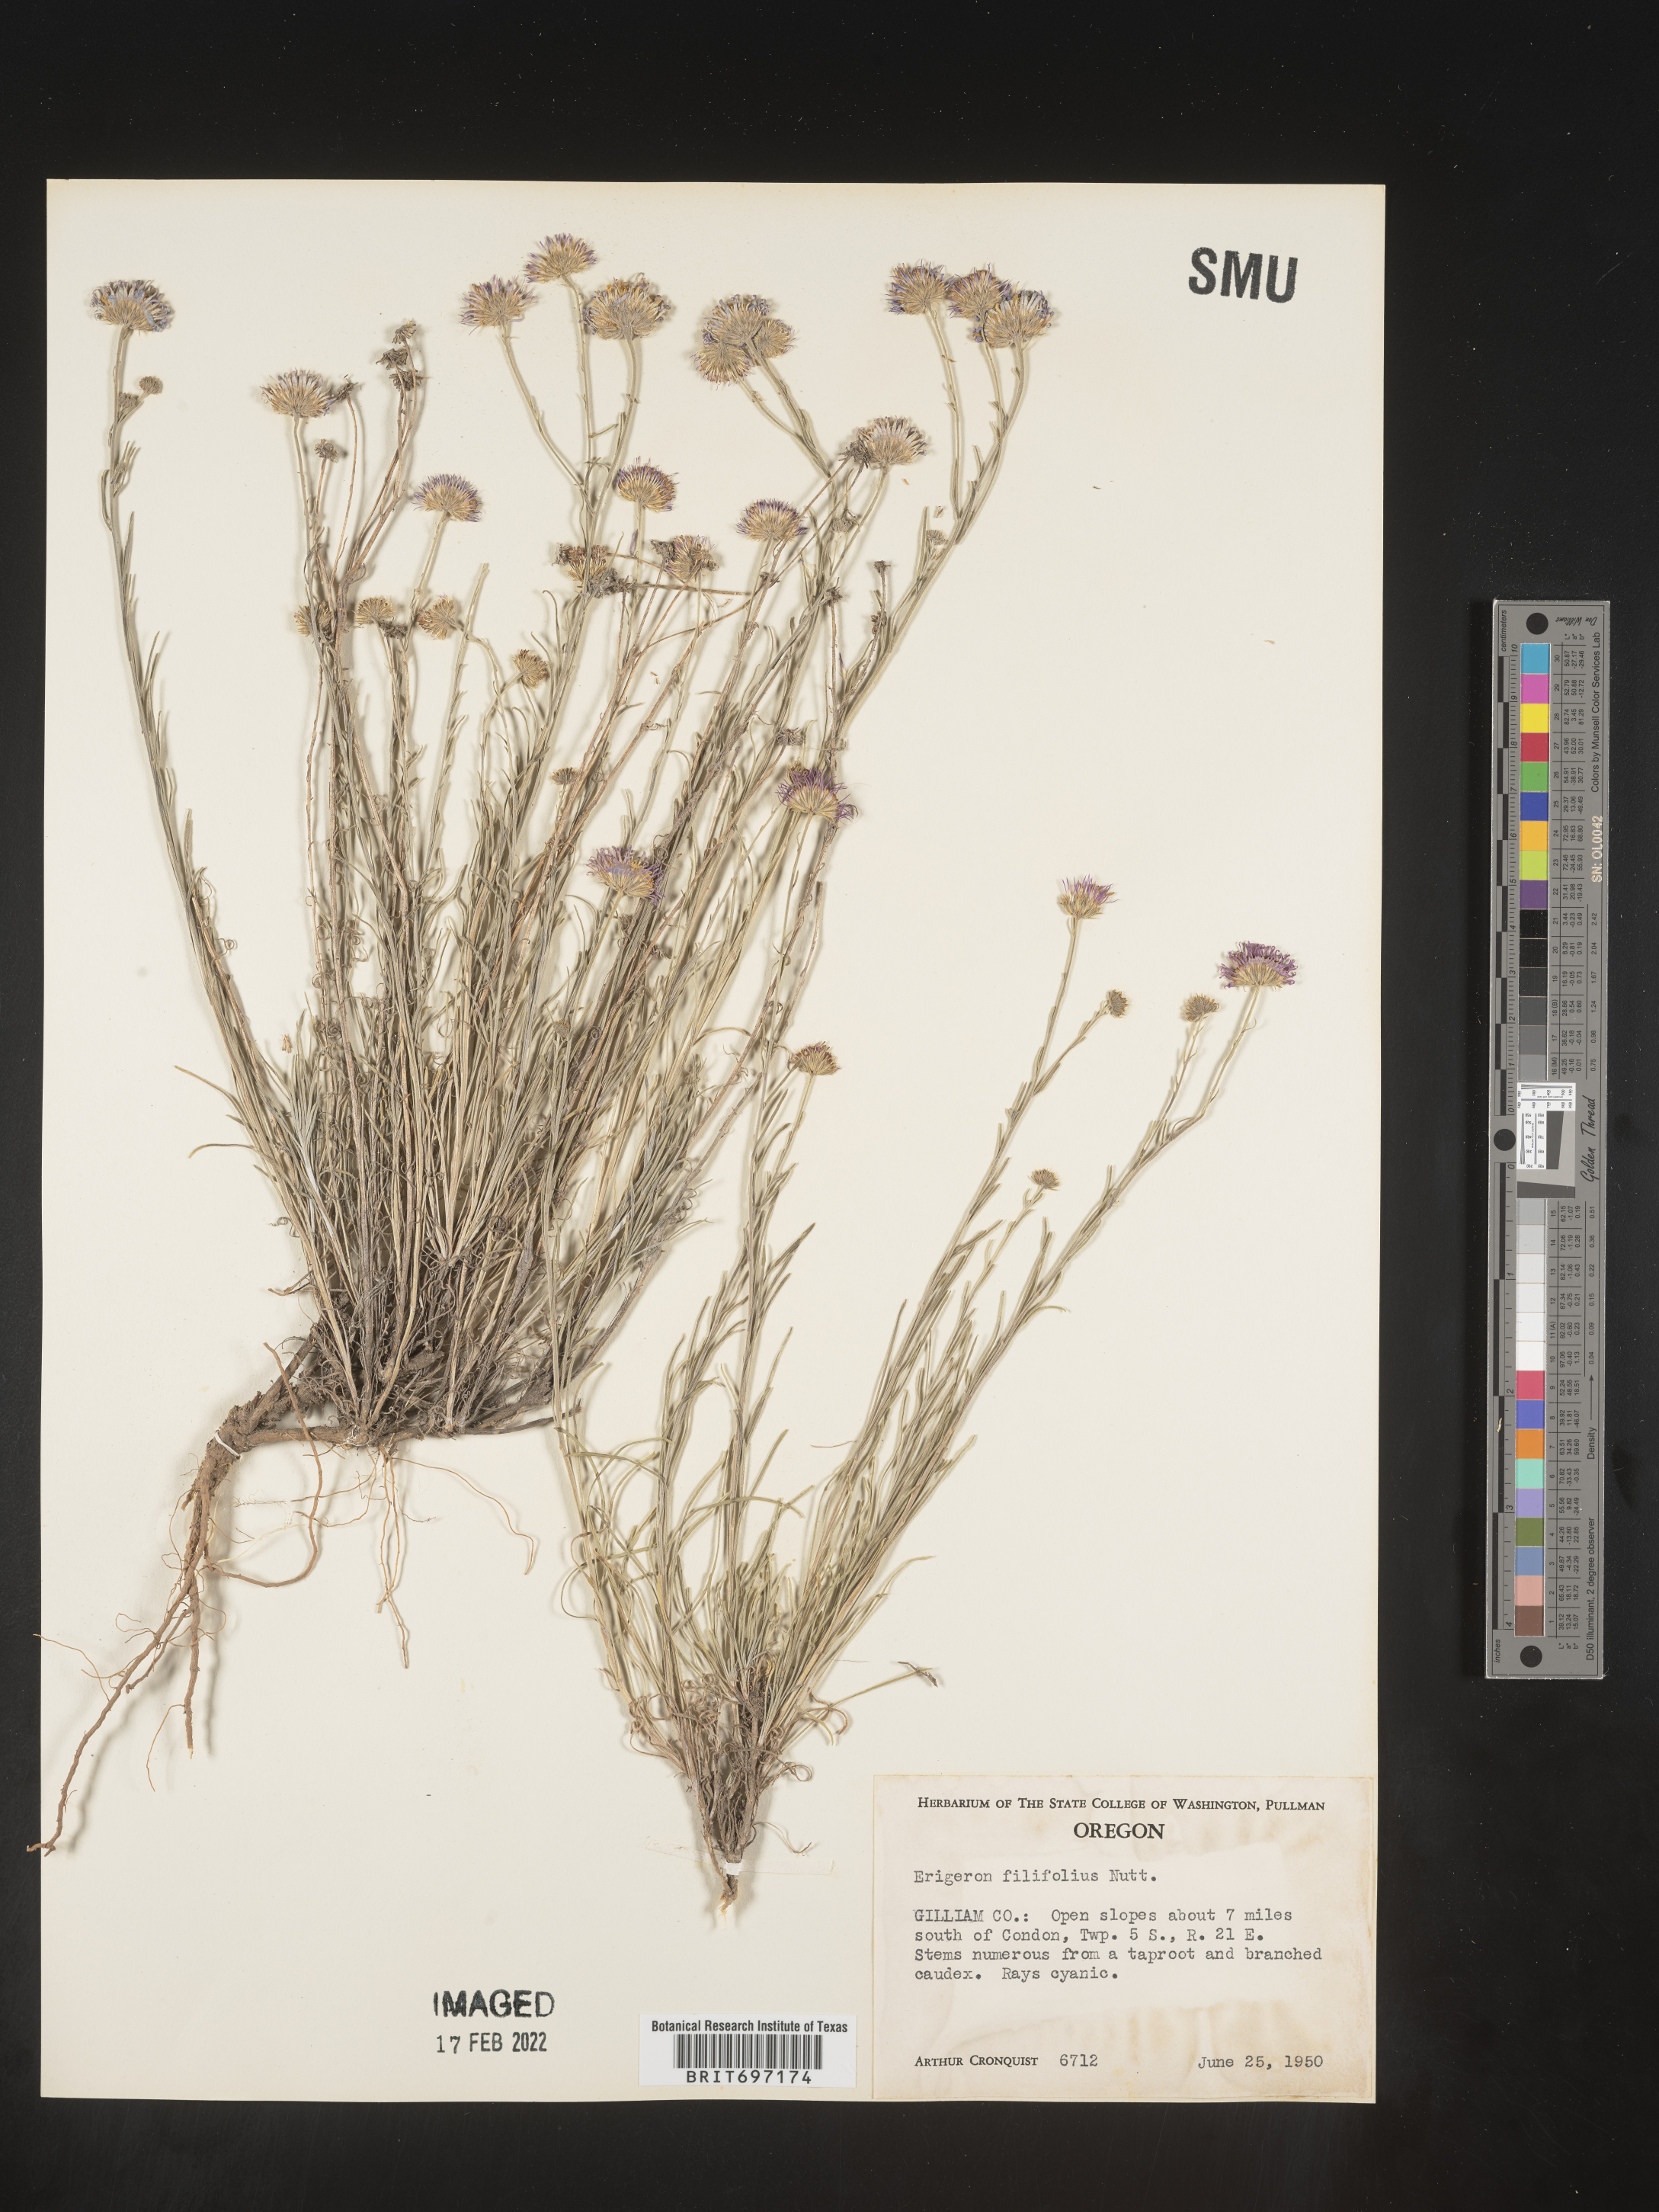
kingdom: Plantae
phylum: Tracheophyta
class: Magnoliopsida
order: Asterales
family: Asteraceae
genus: Erigeron
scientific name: Erigeron filifolius
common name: Threadleaf fleabane
